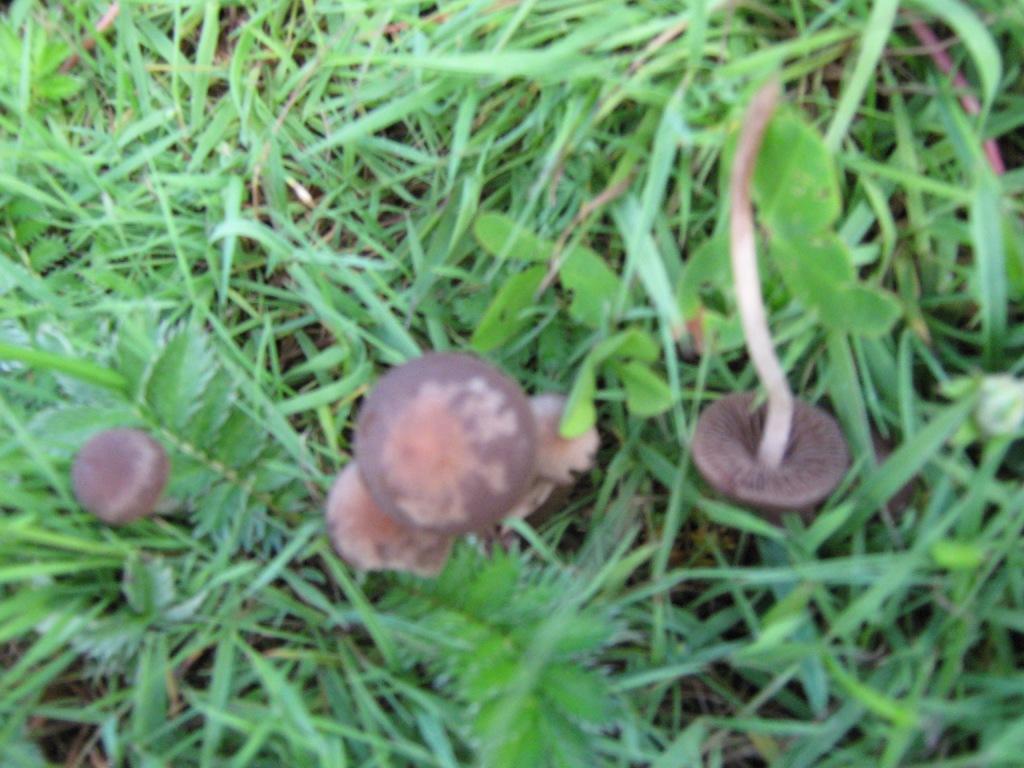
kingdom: Fungi
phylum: Basidiomycota
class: Agaricomycetes
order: Agaricales
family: Bolbitiaceae
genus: Panaeolina
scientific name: Panaeolina foenisecii
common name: høslætsvamp
